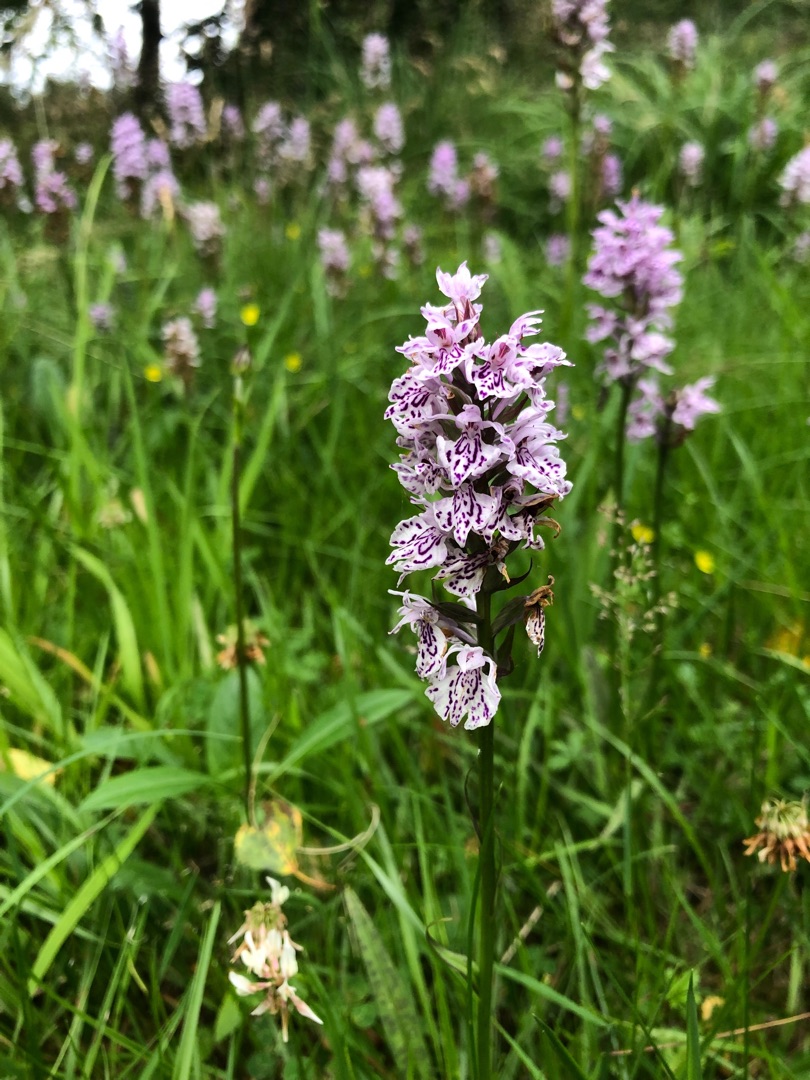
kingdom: Plantae
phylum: Tracheophyta
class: Liliopsida
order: Asparagales
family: Orchidaceae
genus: Dactylorhiza
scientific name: Dactylorhiza maculata
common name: Plettet gøgeurt
